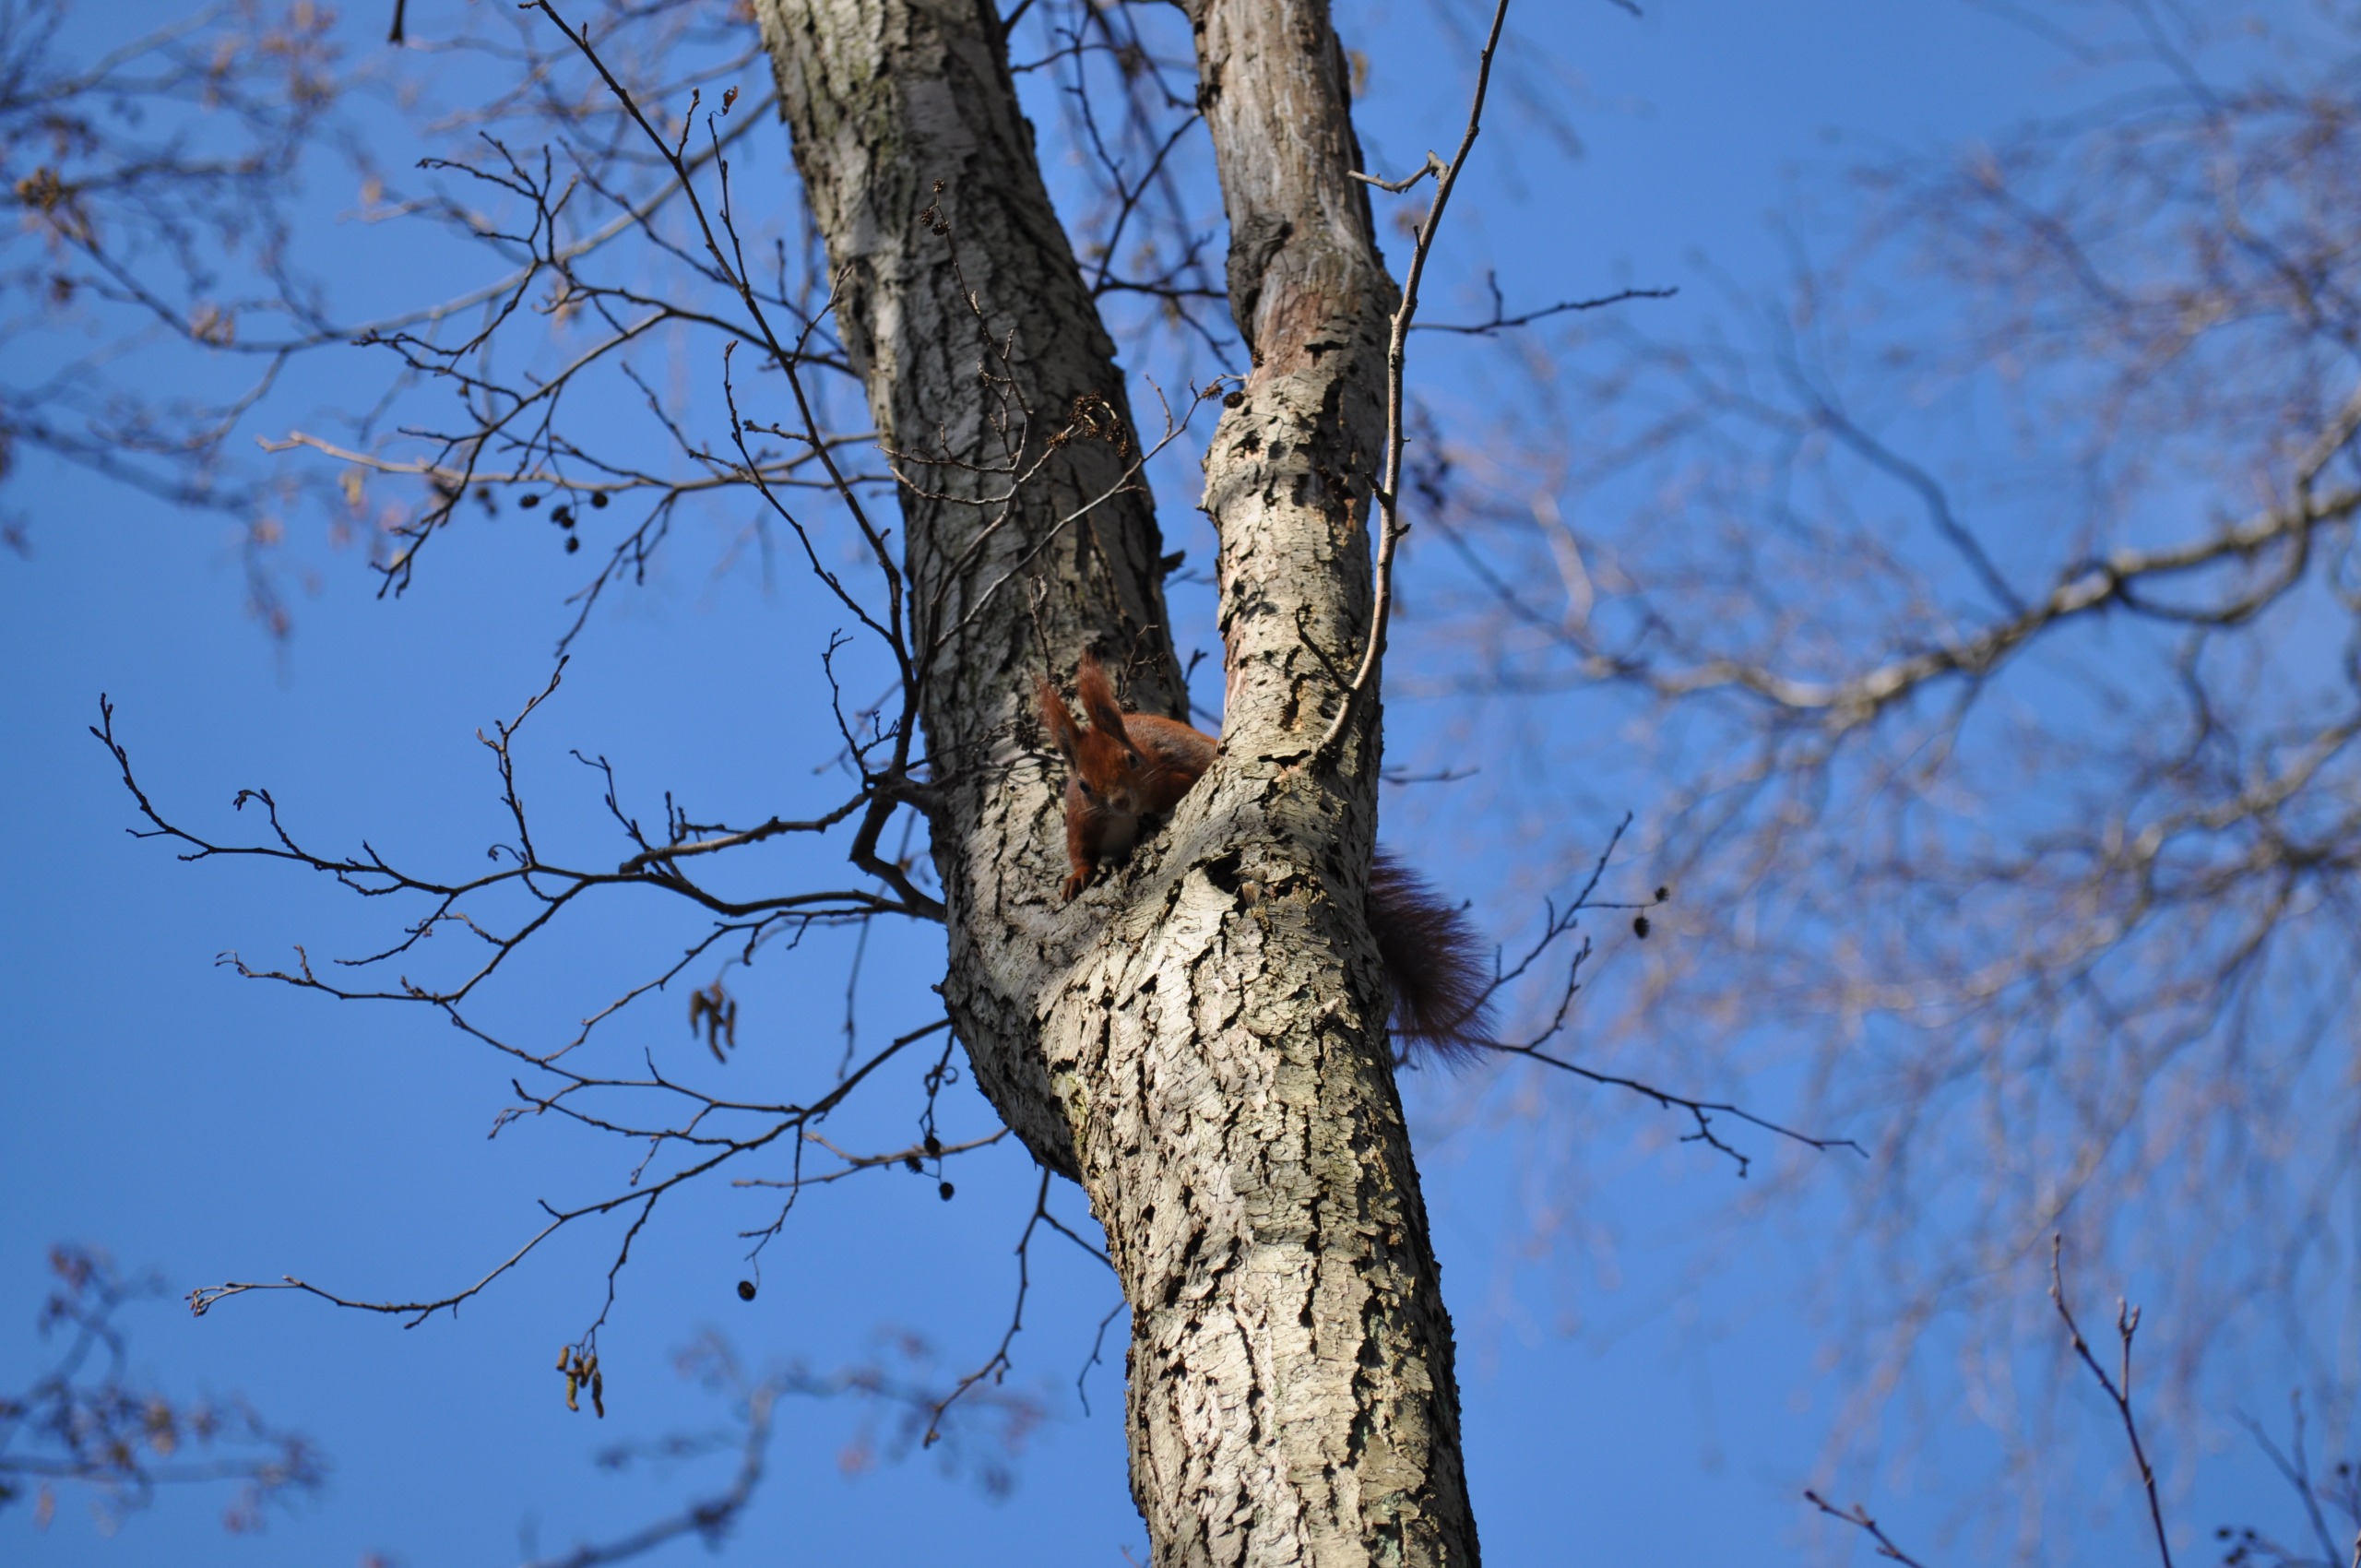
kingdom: Animalia
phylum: Chordata
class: Mammalia
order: Rodentia
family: Sciuridae
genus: Sciurus
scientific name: Sciurus vulgaris
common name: Egern
